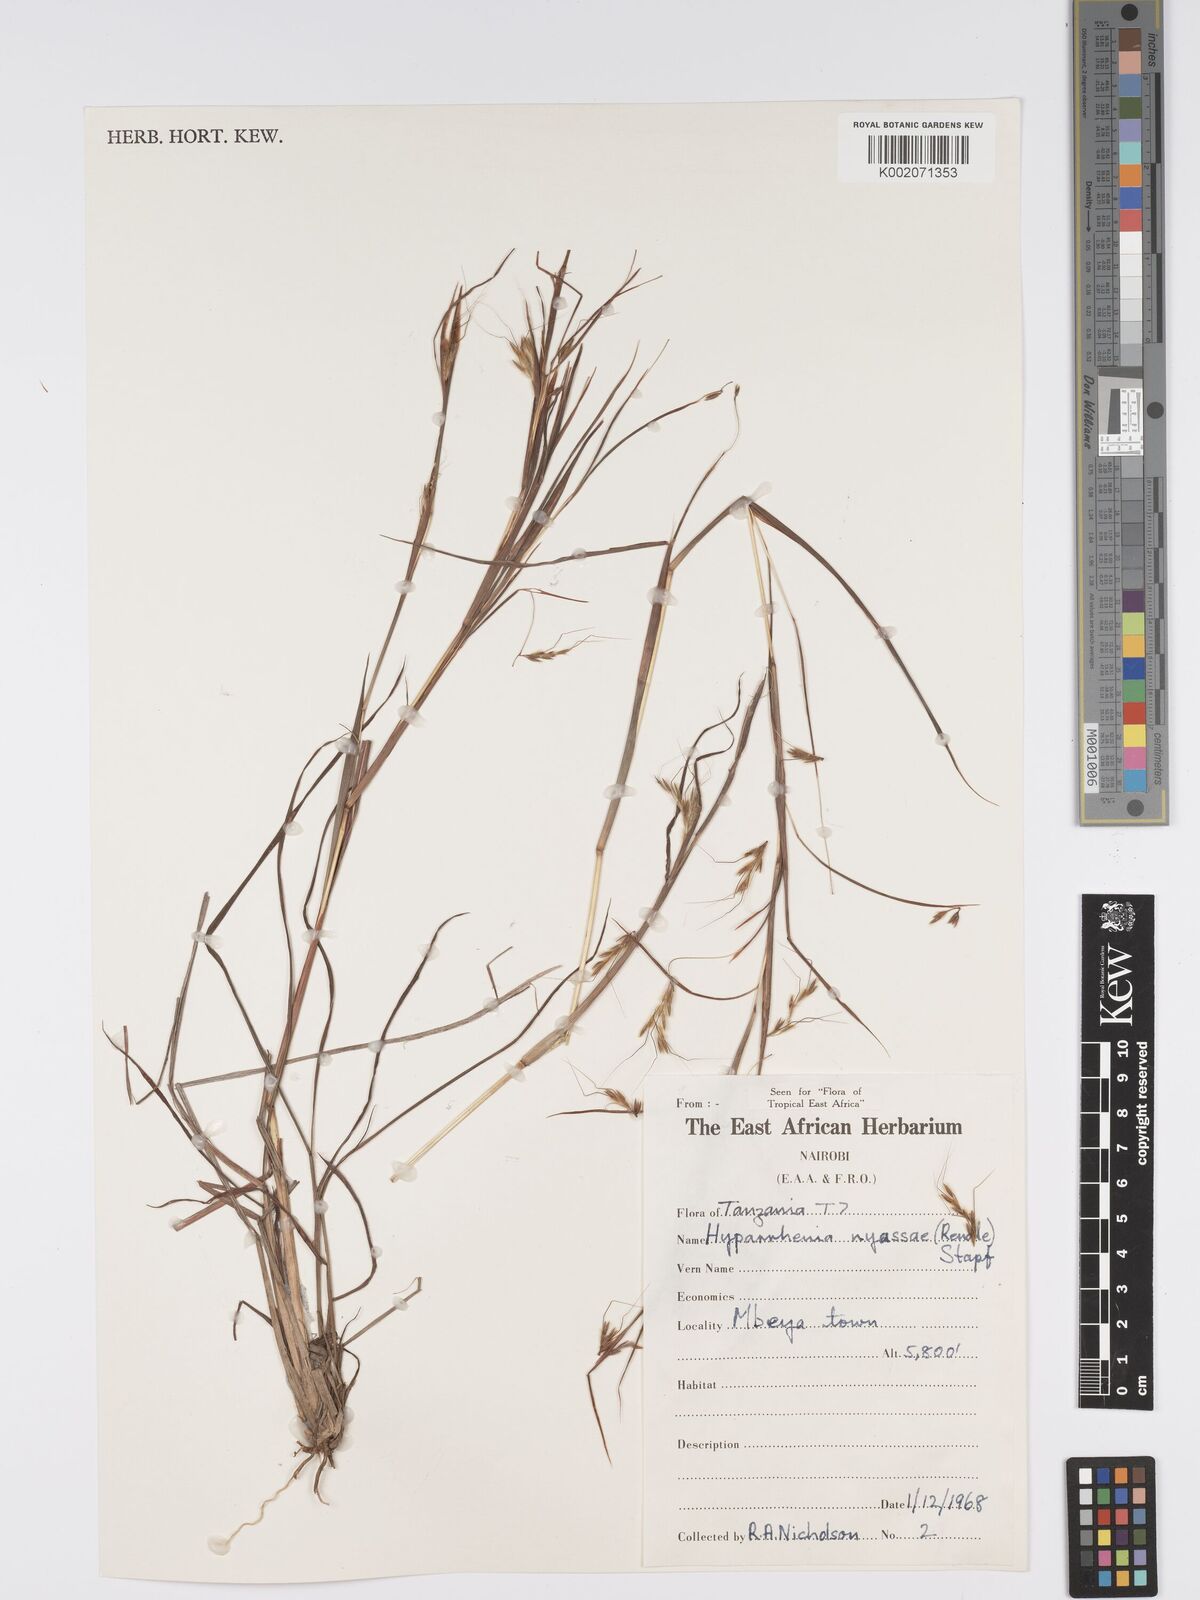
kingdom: Plantae
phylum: Tracheophyta
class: Liliopsida
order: Poales
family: Poaceae
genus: Hyparrhenia
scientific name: Hyparrhenia nyassae
